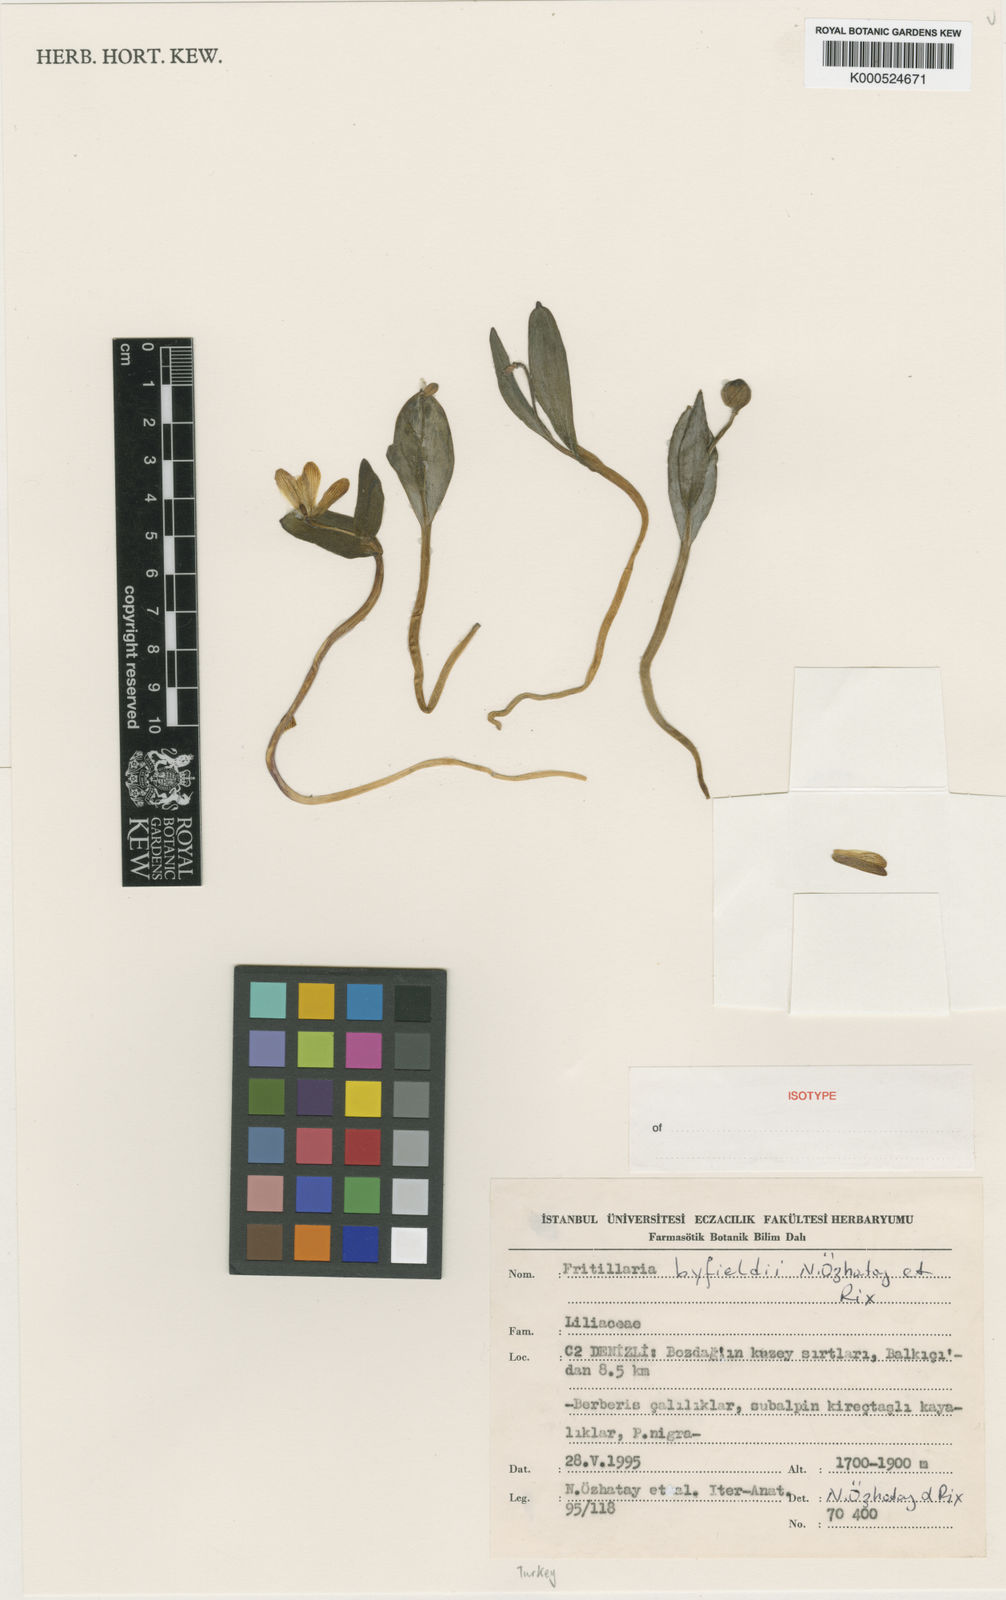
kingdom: Plantae
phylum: Tracheophyta
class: Liliopsida
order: Liliales
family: Liliaceae
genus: Fritillaria
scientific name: Fritillaria
